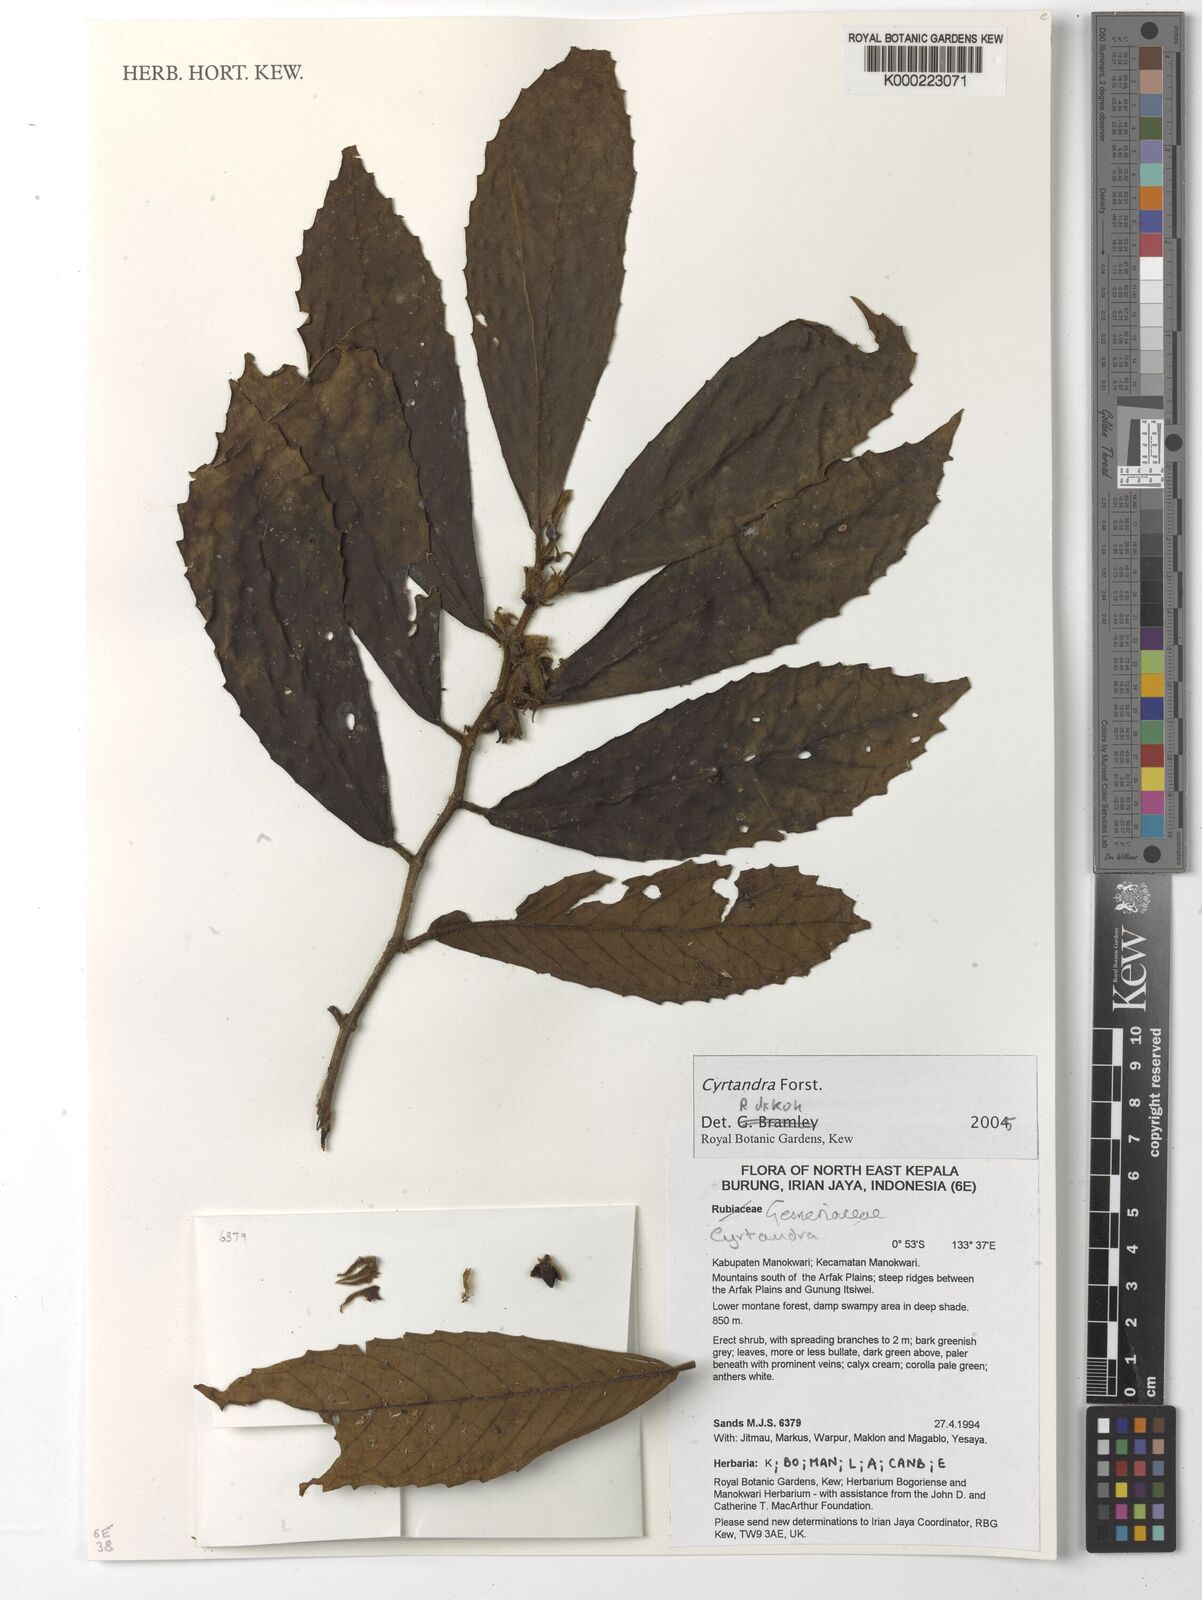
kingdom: Plantae
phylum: Tracheophyta
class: Magnoliopsida
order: Lamiales
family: Gesneriaceae
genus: Cyrtandra
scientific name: Cyrtandra
